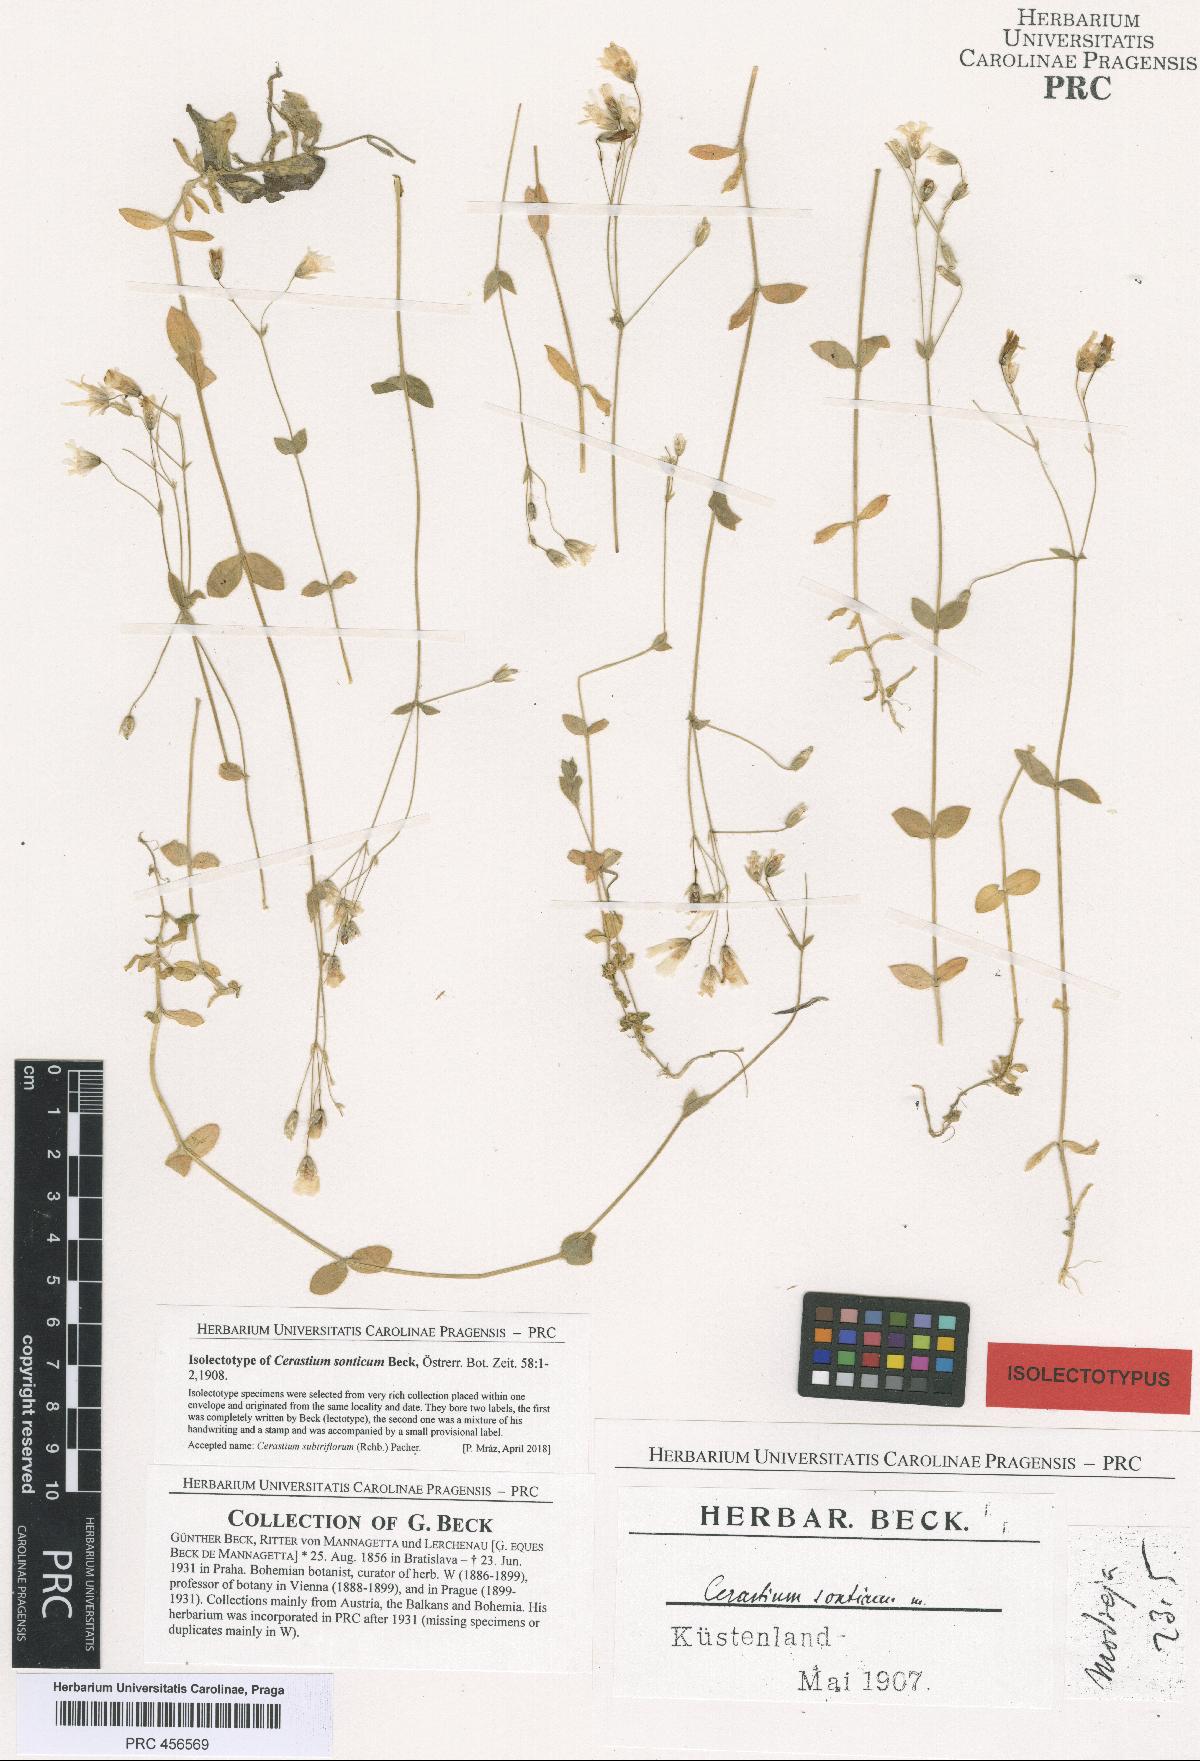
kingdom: Plantae
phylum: Tracheophyta
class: Magnoliopsida
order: Caryophyllales
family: Caryophyllaceae
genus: Cerastium
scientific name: Cerastium subtriflorum
